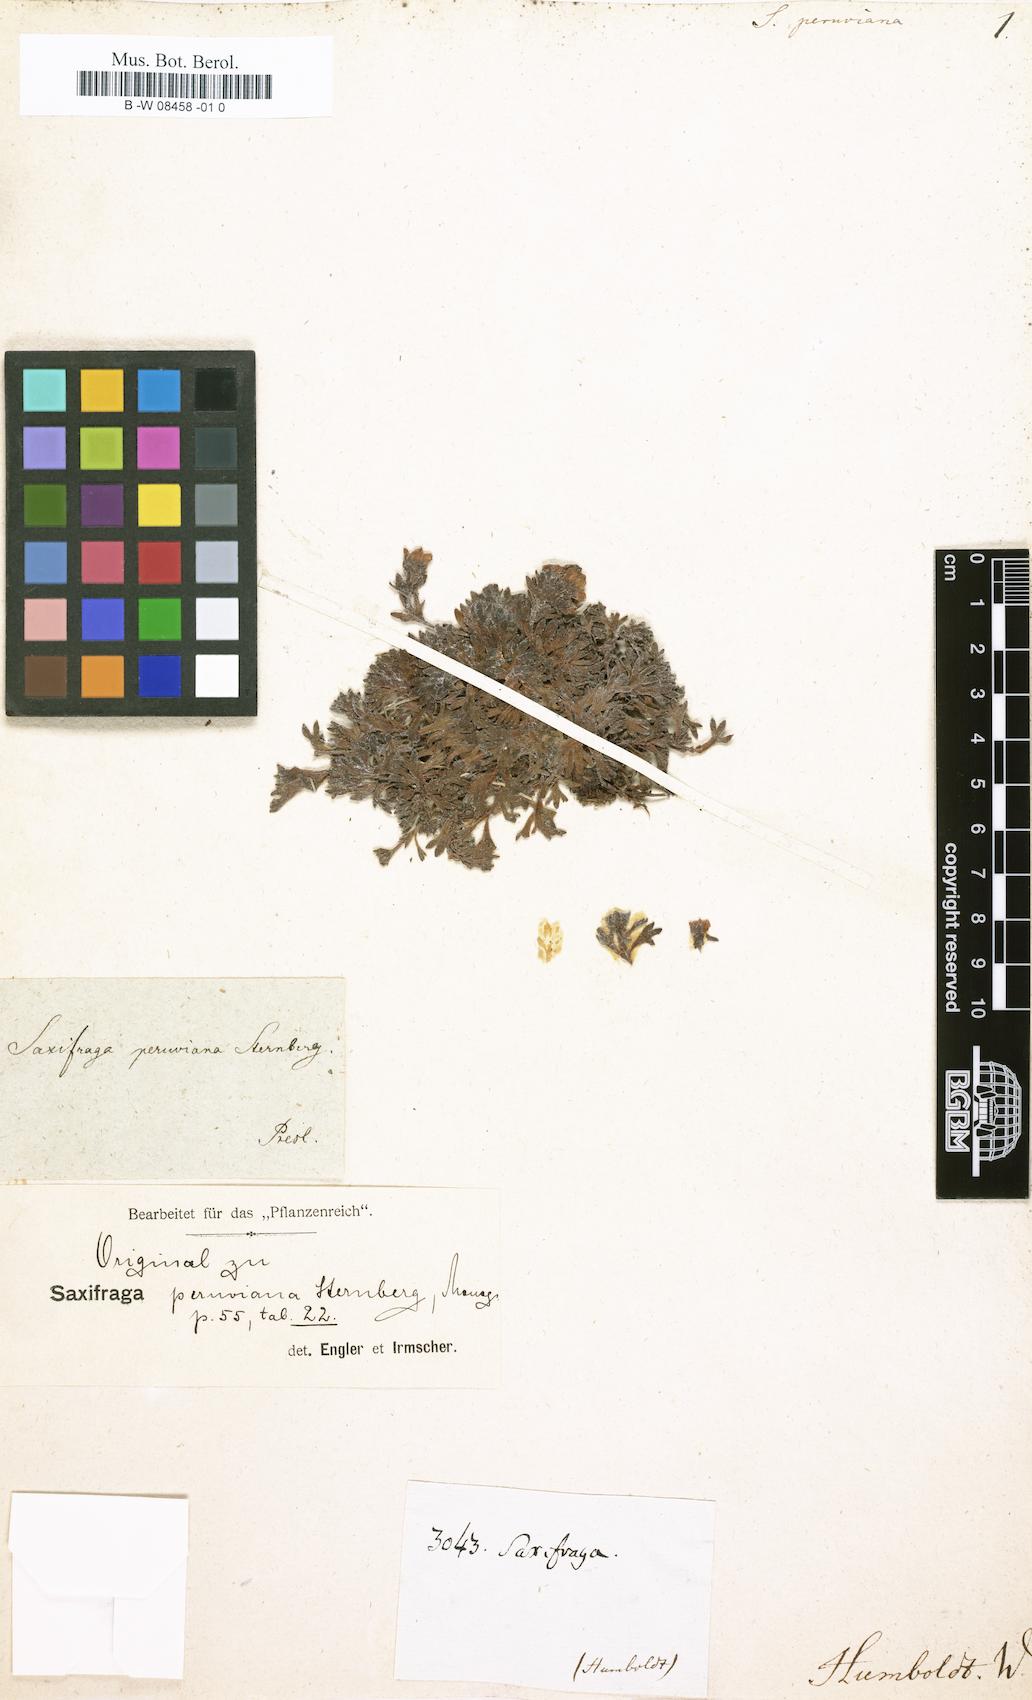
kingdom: Plantae
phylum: Tracheophyta
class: Magnoliopsida
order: Saxifragales
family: Saxifragaceae
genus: Saxifraga
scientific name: Saxifraga magellanica
